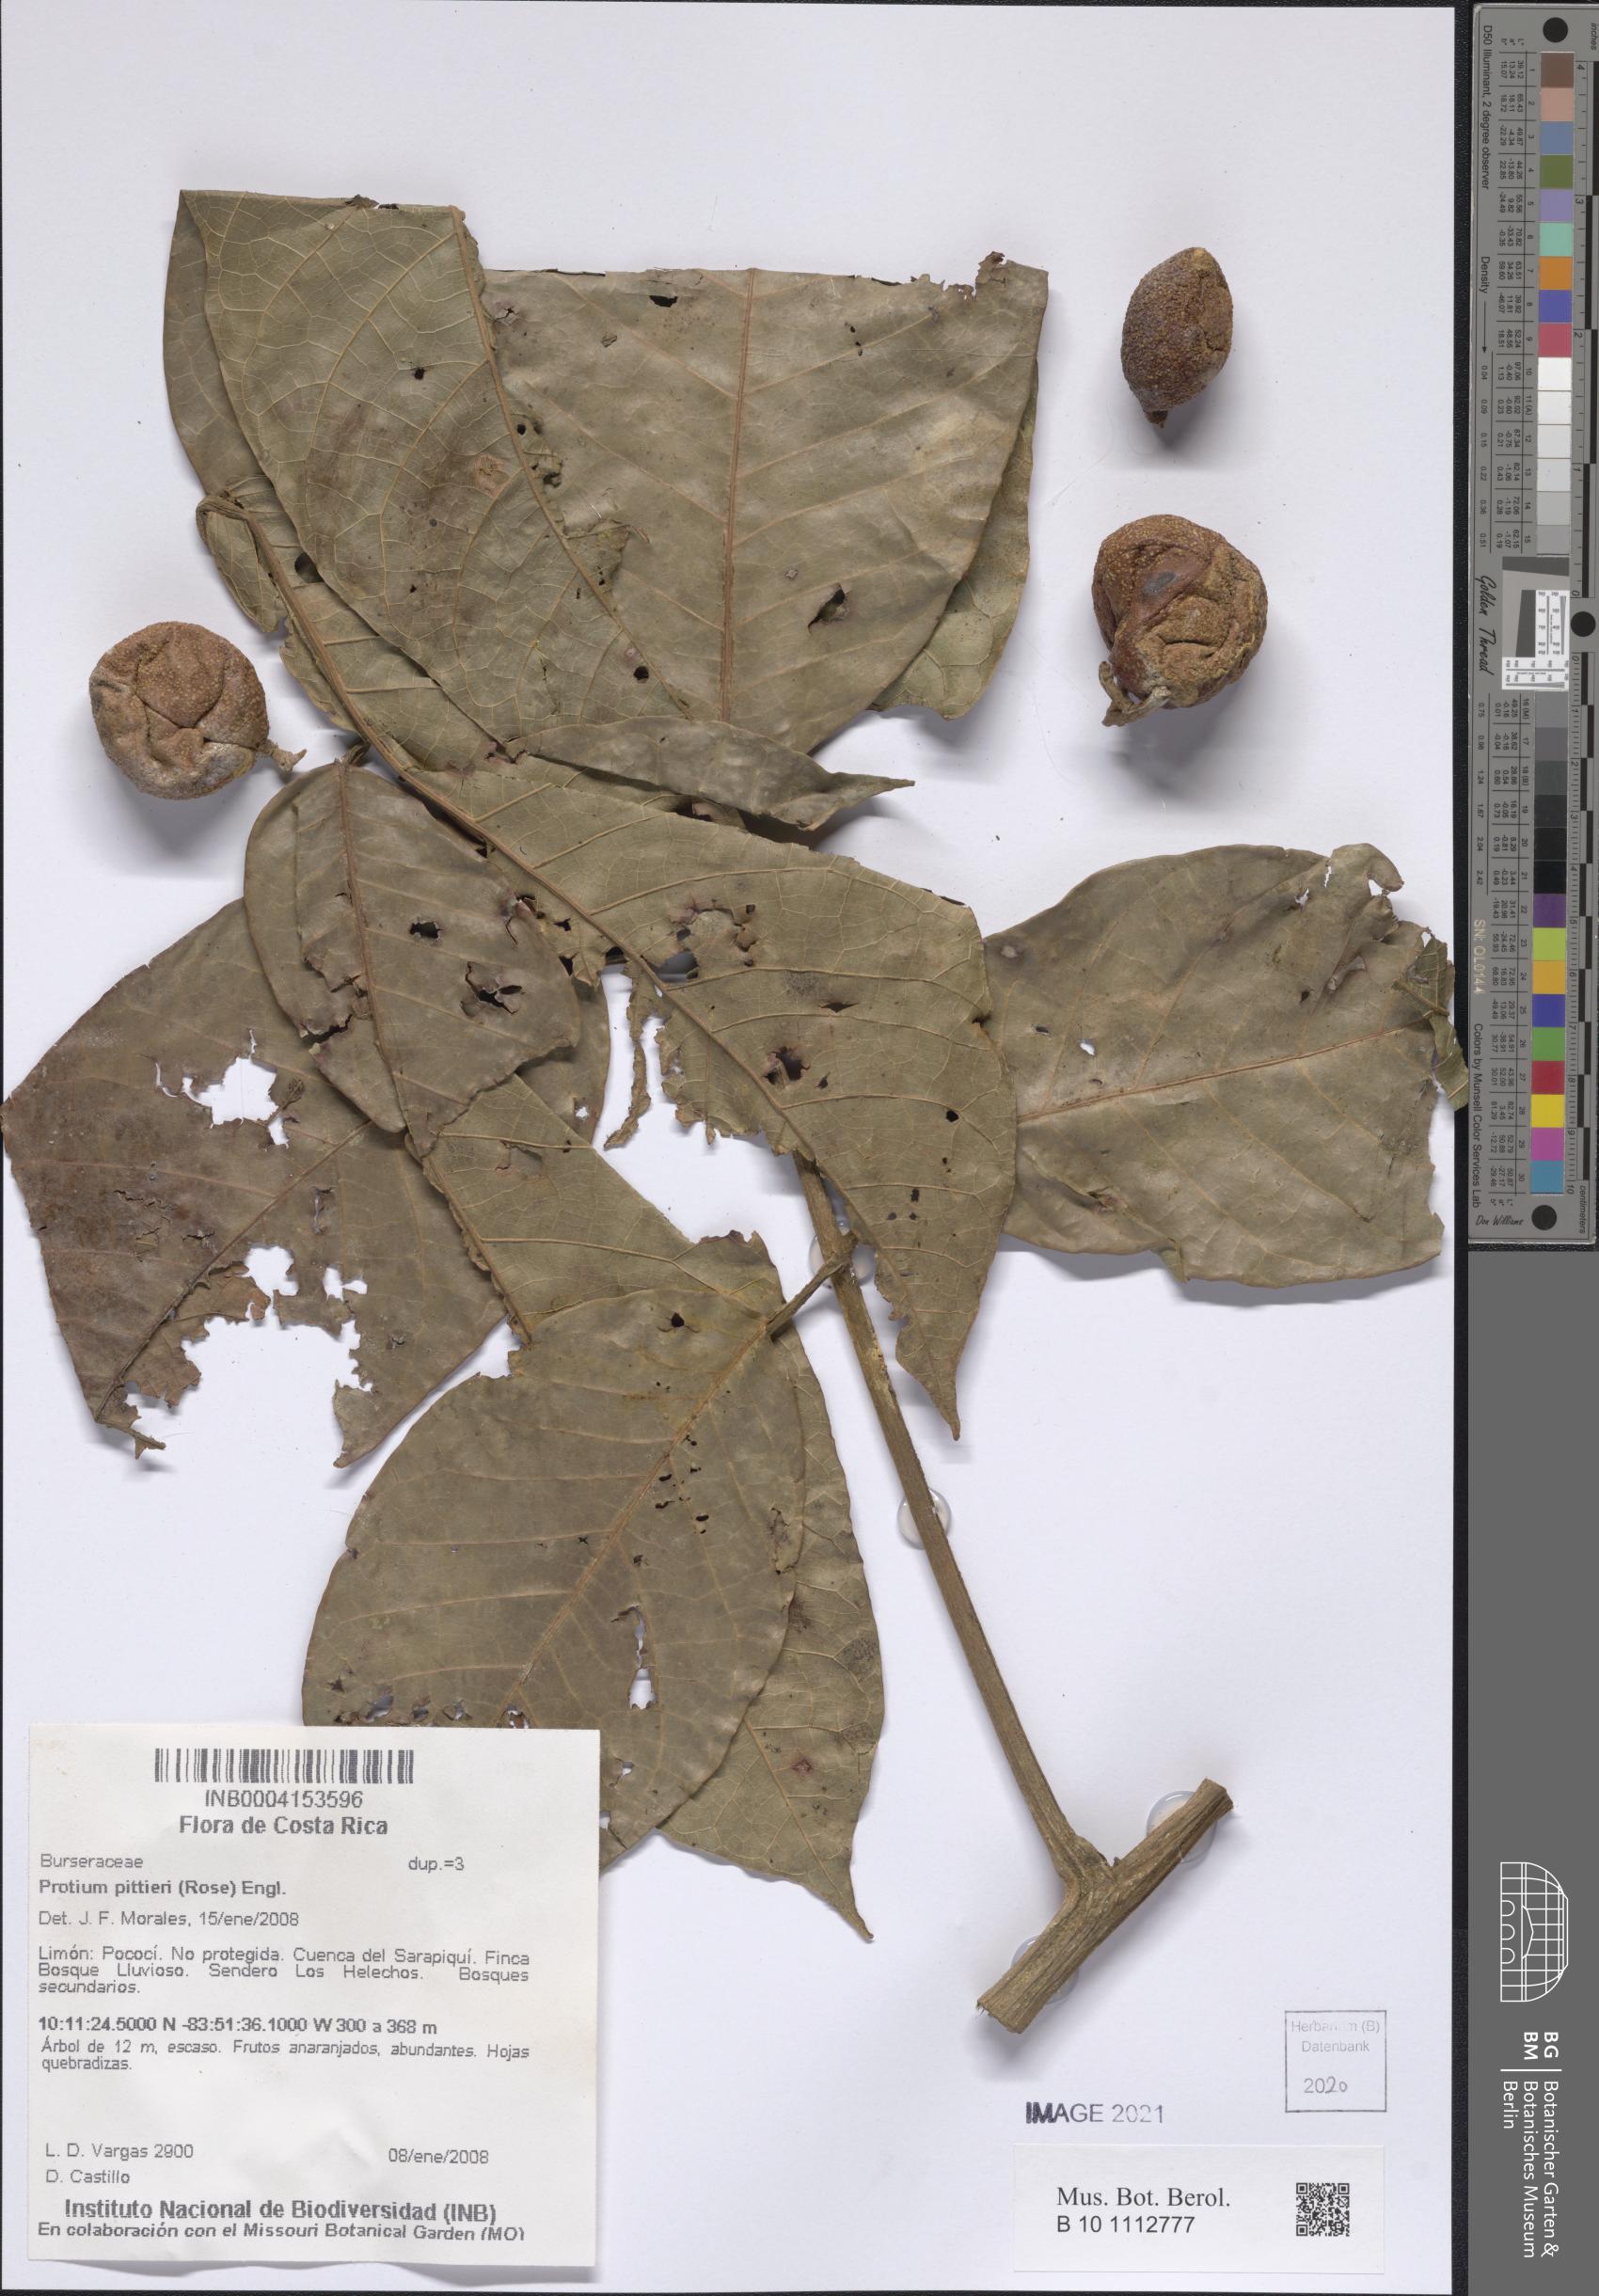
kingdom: Plantae
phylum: Tracheophyta
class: Magnoliopsida
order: Sapindales
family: Burseraceae
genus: Protium
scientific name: Protium pittieri
